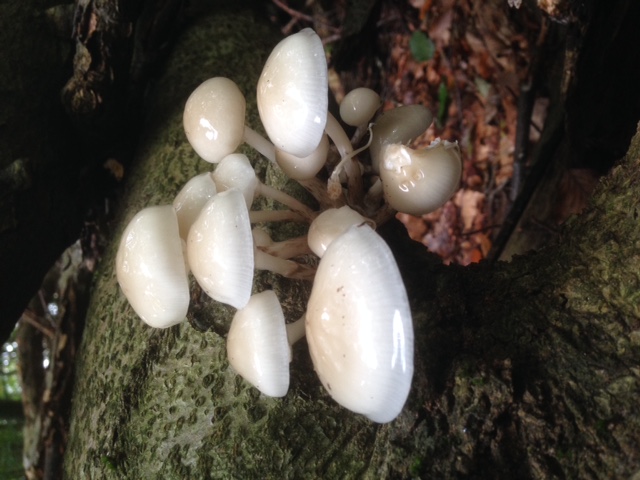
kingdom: Fungi
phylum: Basidiomycota
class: Agaricomycetes
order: Agaricales
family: Physalacriaceae
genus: Mucidula
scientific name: Mucidula mucida
